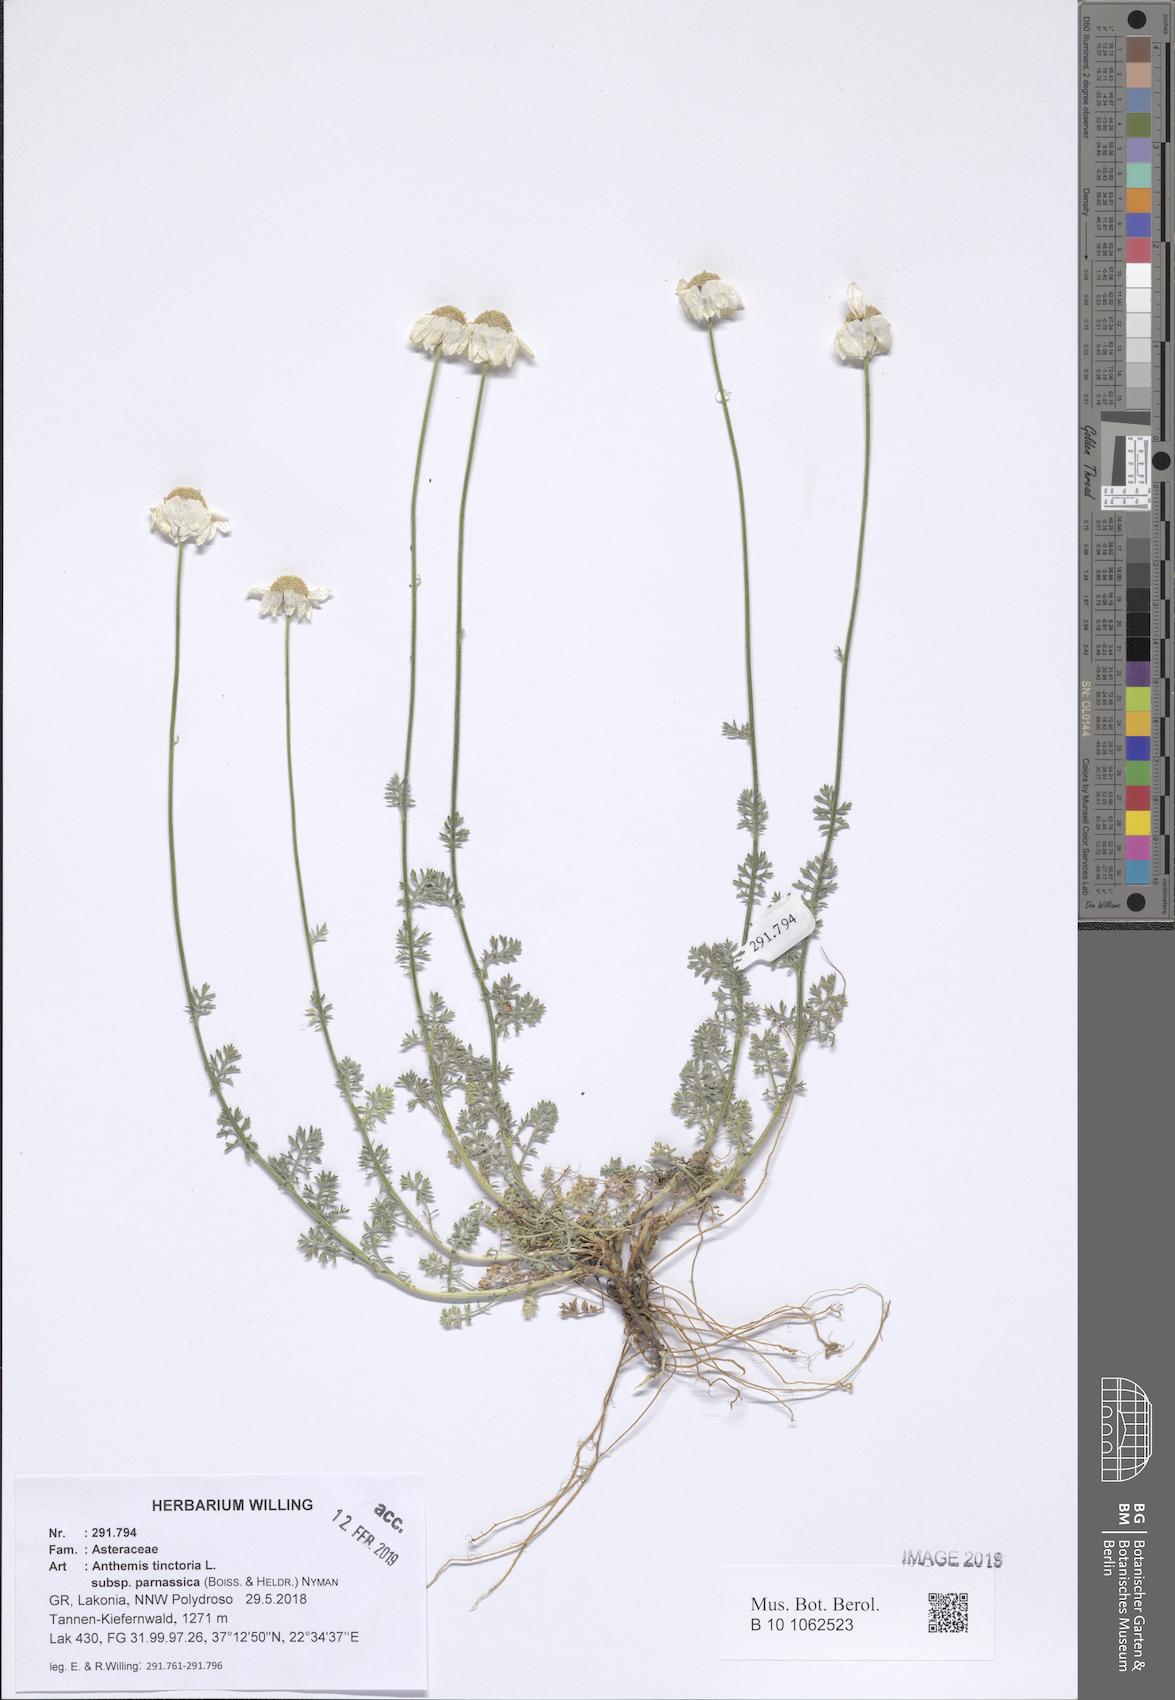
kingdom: Plantae
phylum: Tracheophyta
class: Magnoliopsida
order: Asterales
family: Asteraceae
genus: Cota
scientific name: Cota tinctoria
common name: Golden chamomile
